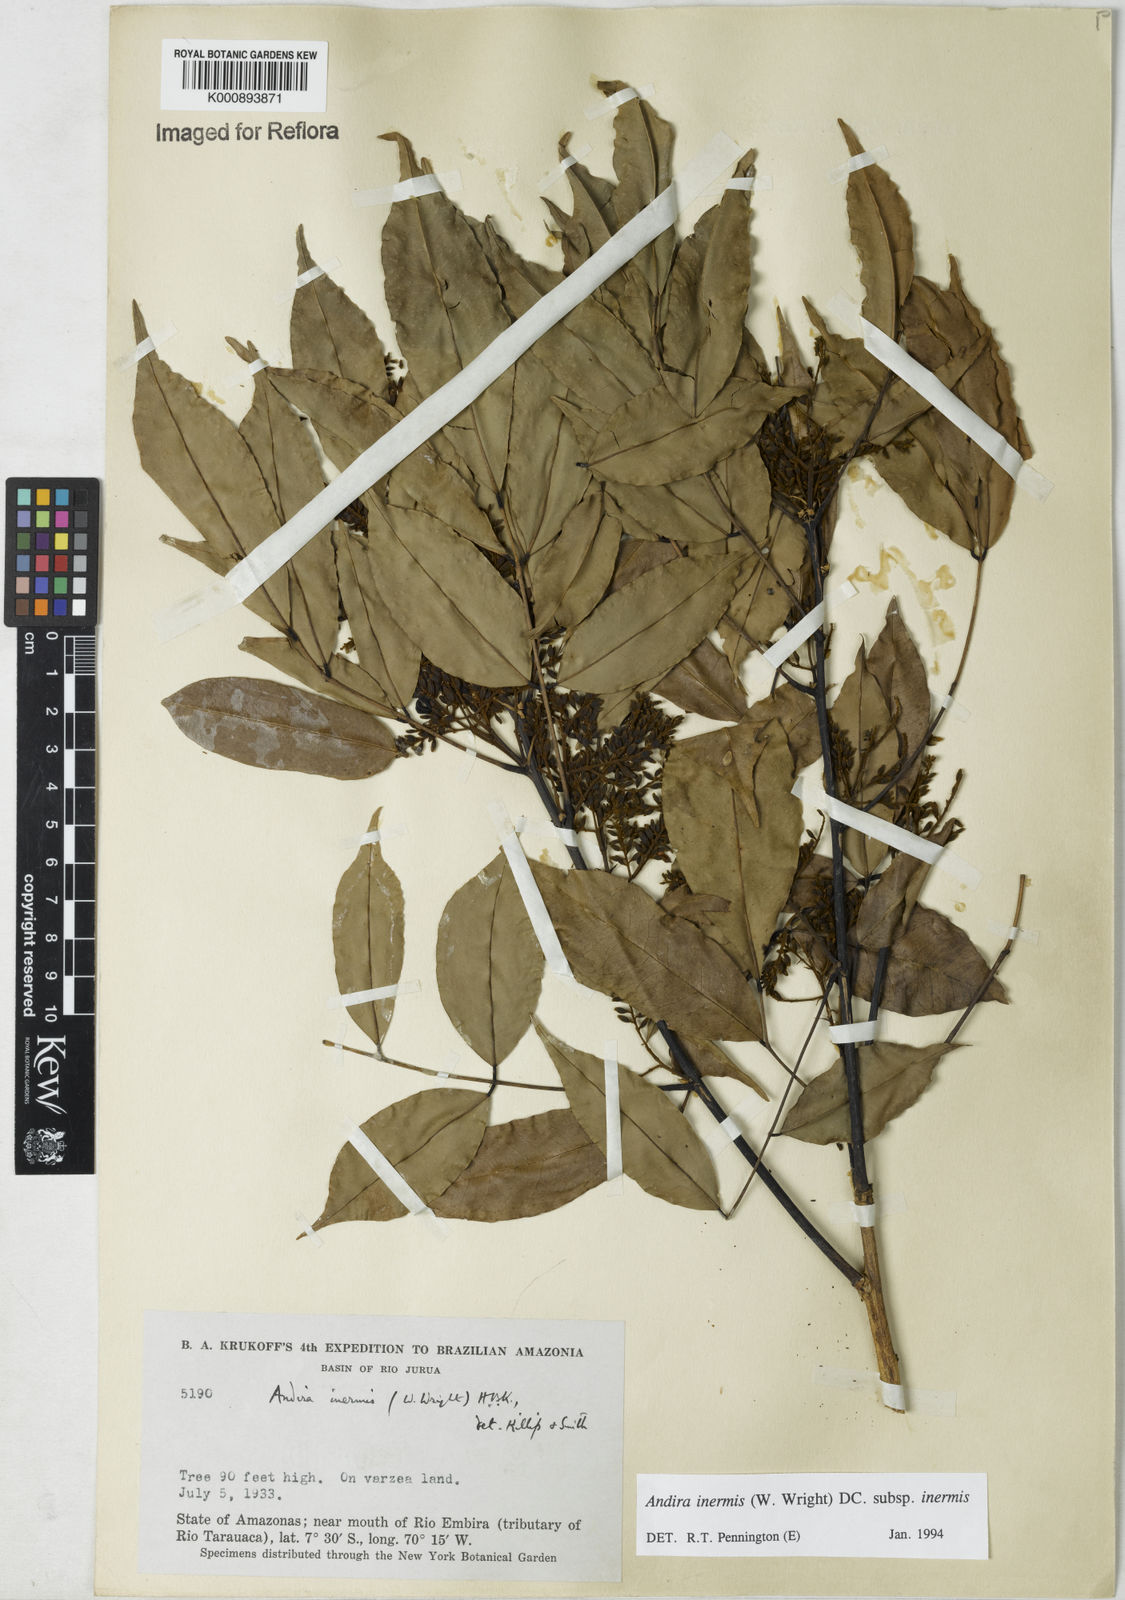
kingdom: Plantae
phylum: Tracheophyta
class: Magnoliopsida
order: Fabales
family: Fabaceae
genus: Andira
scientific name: Andira inermis
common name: Angelin
